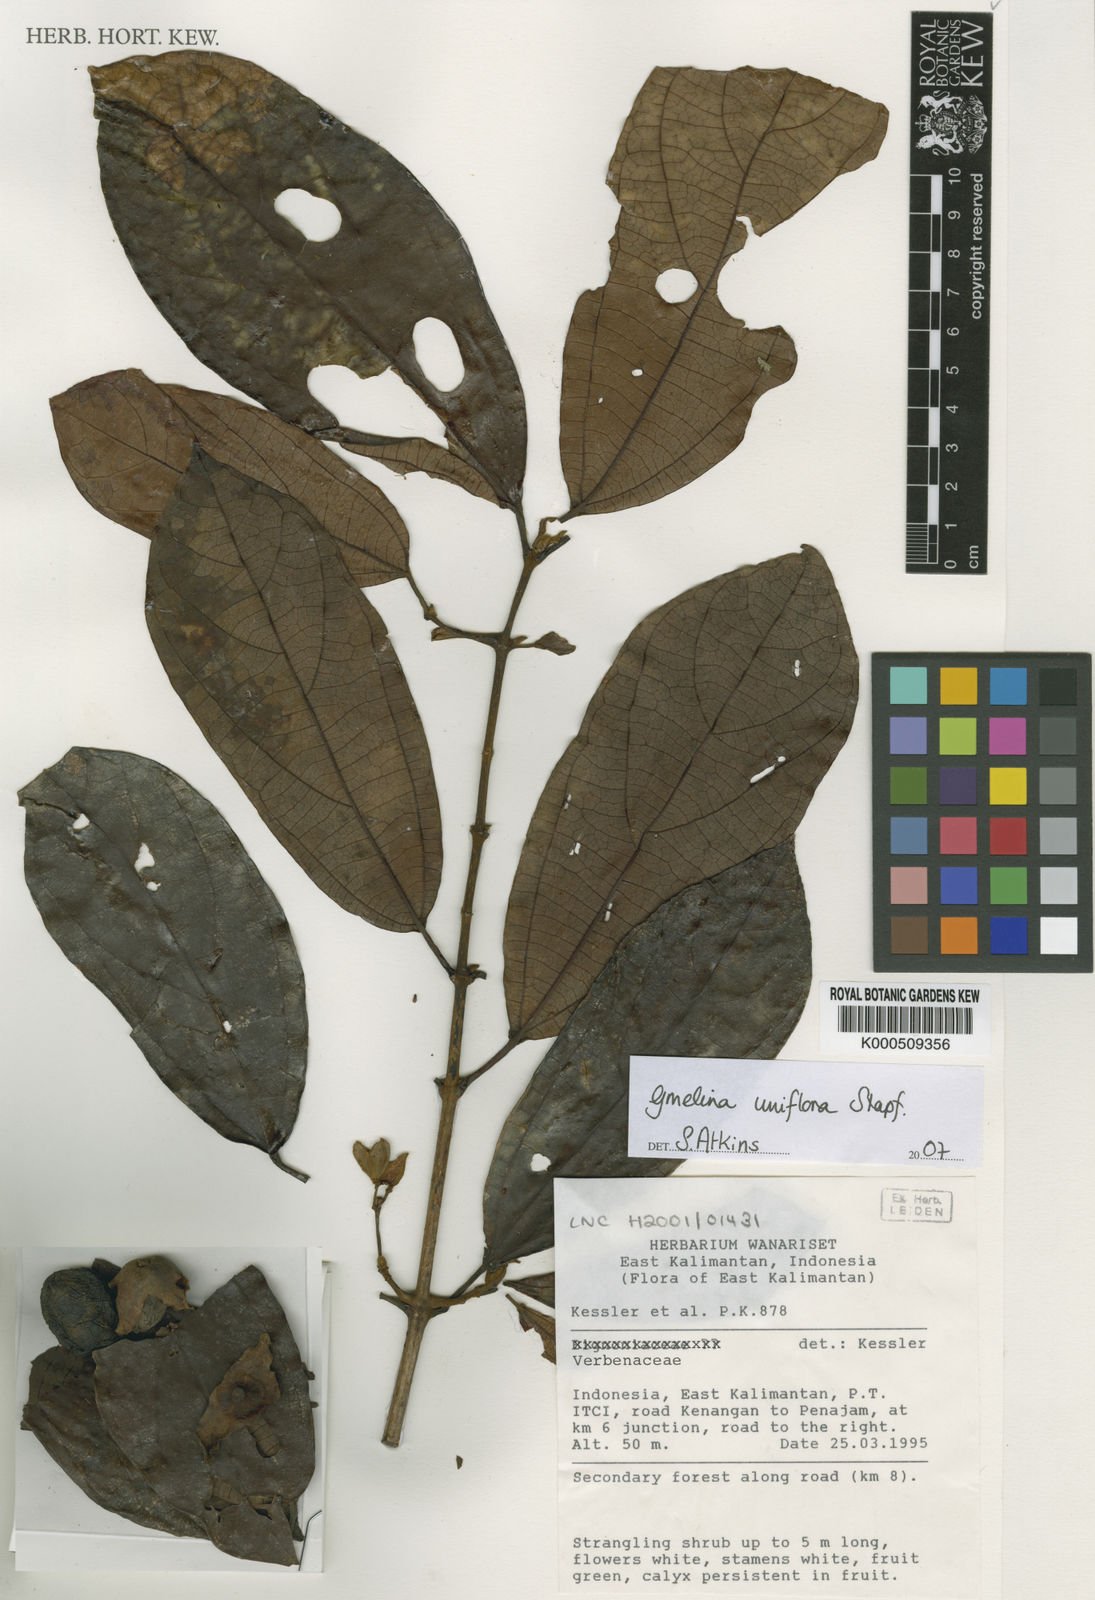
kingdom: Plantae
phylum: Tracheophyta
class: Magnoliopsida
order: Lamiales
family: Lamiaceae
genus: Gmelina
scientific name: Gmelina uniflora
